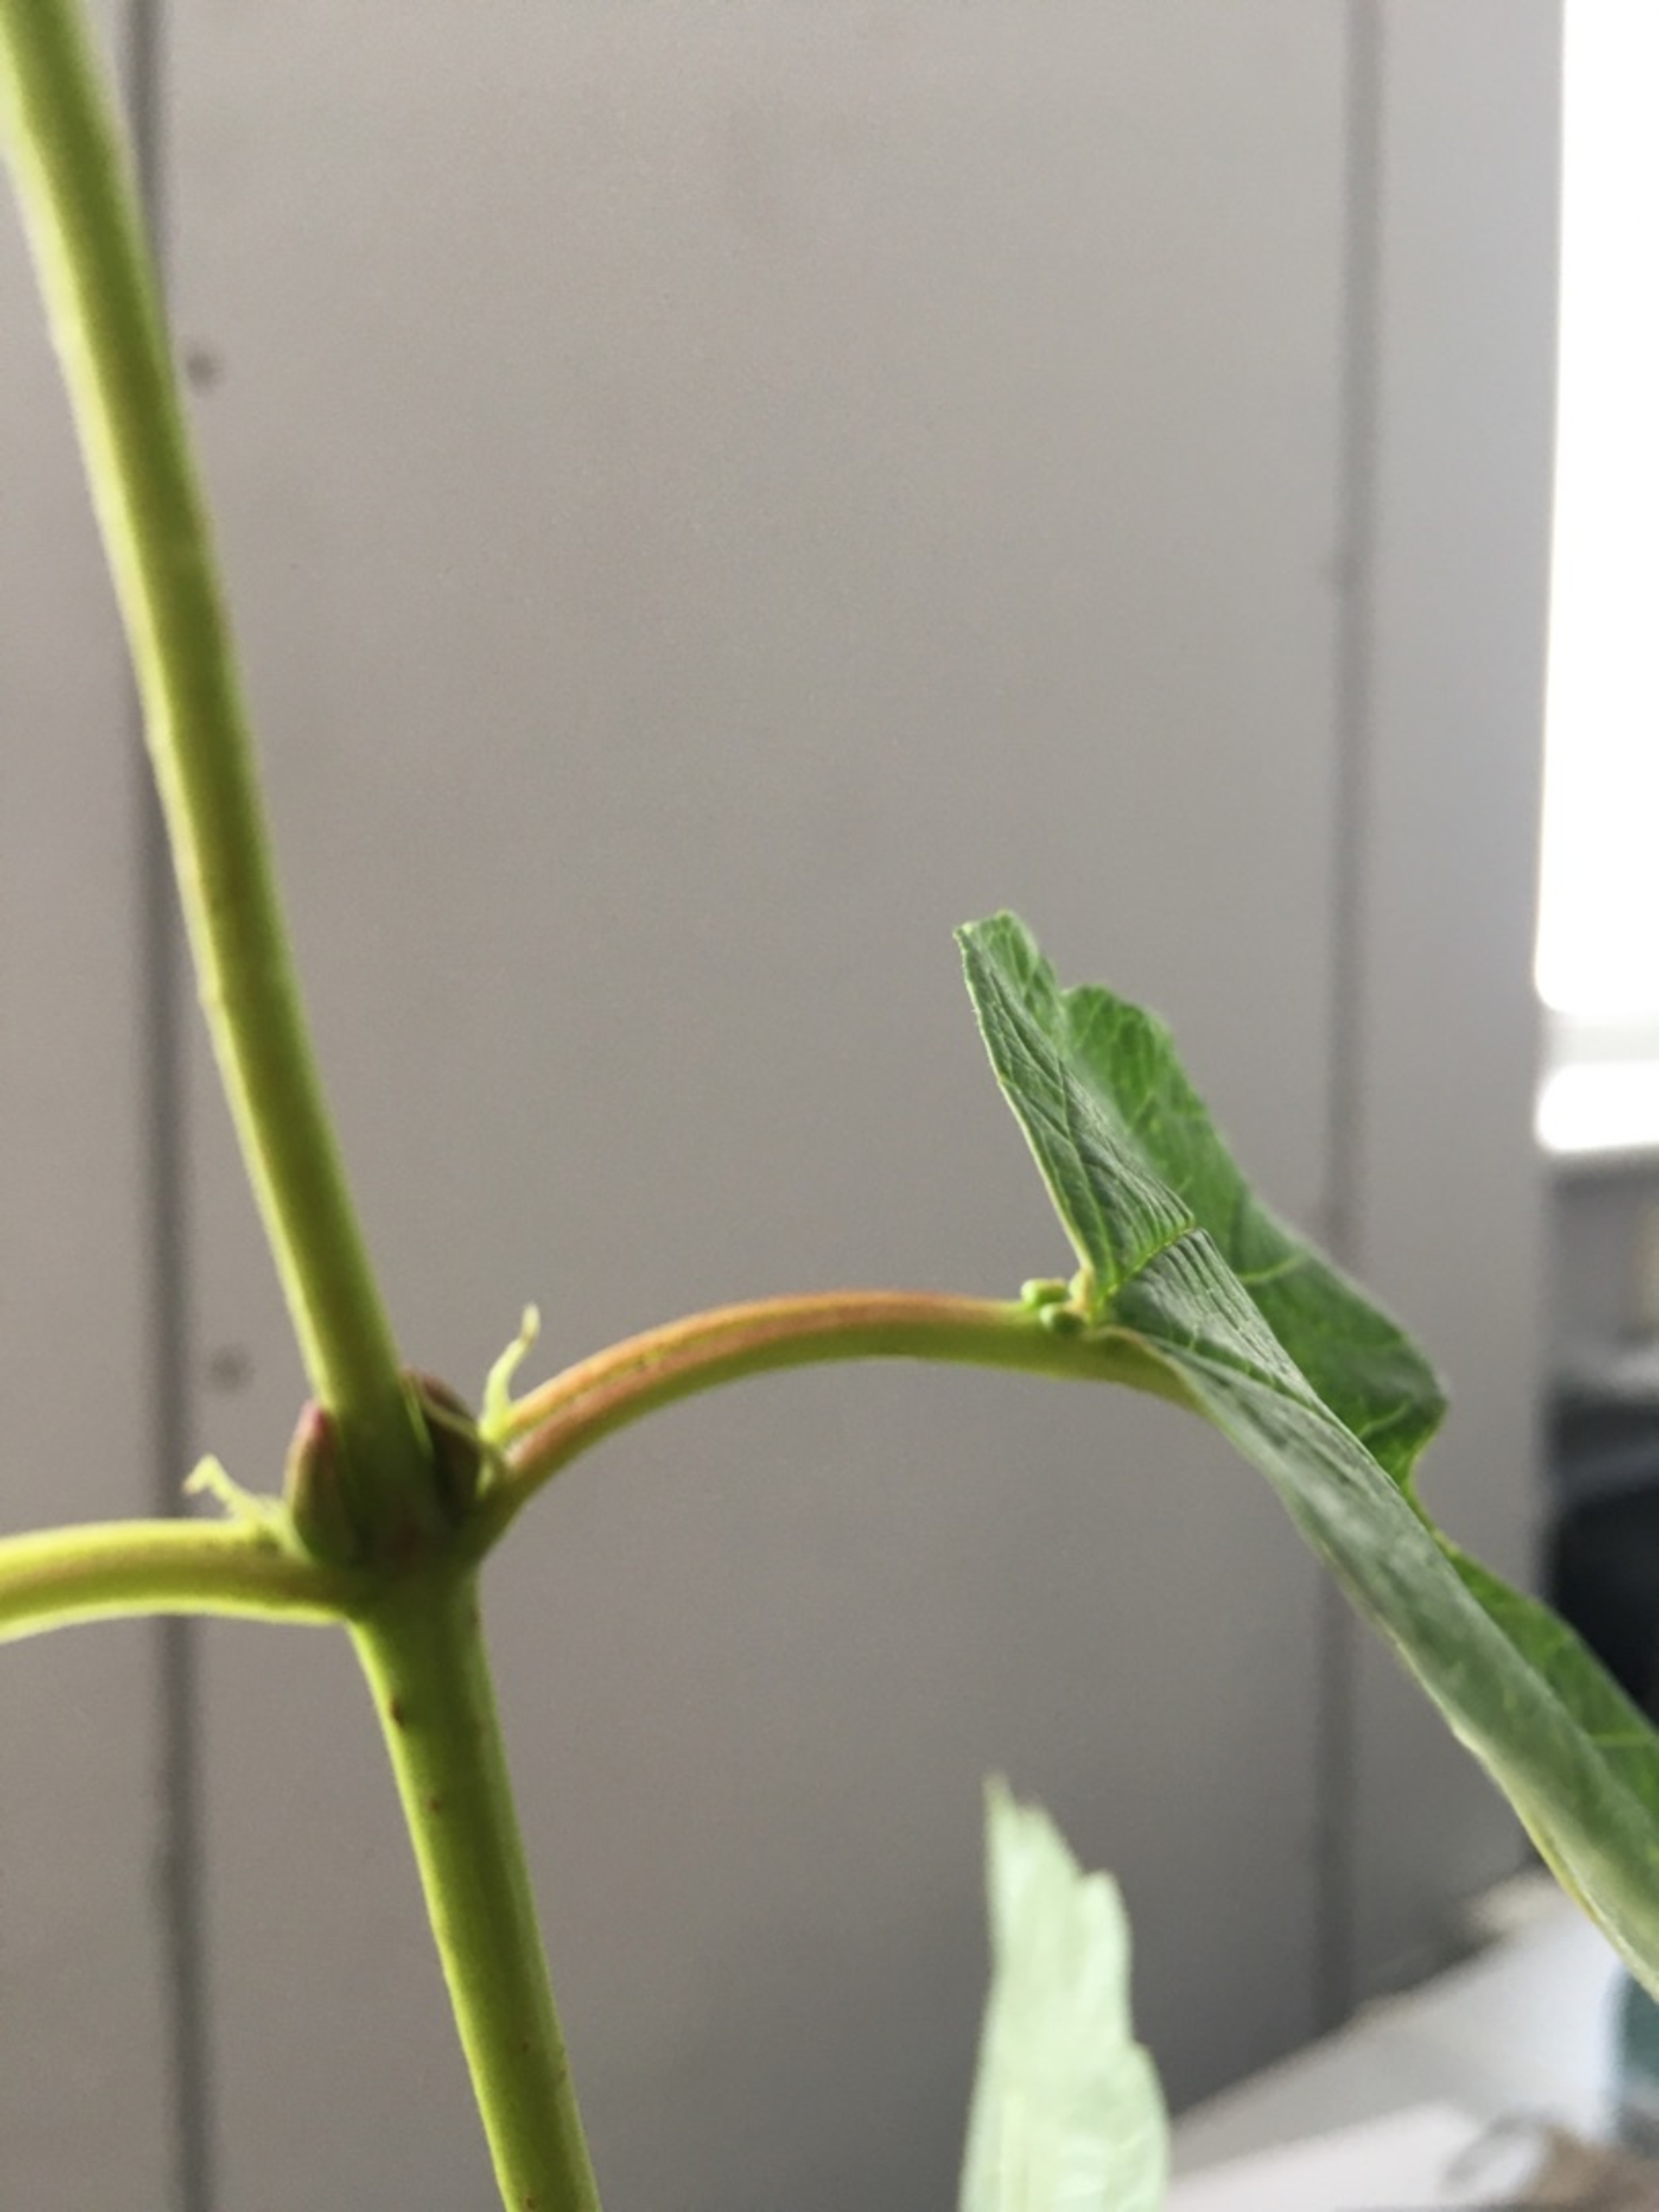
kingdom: Plantae
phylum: Tracheophyta
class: Magnoliopsida
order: Dipsacales
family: Viburnaceae
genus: Viburnum
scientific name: Viburnum opulus
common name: Kvalkved
